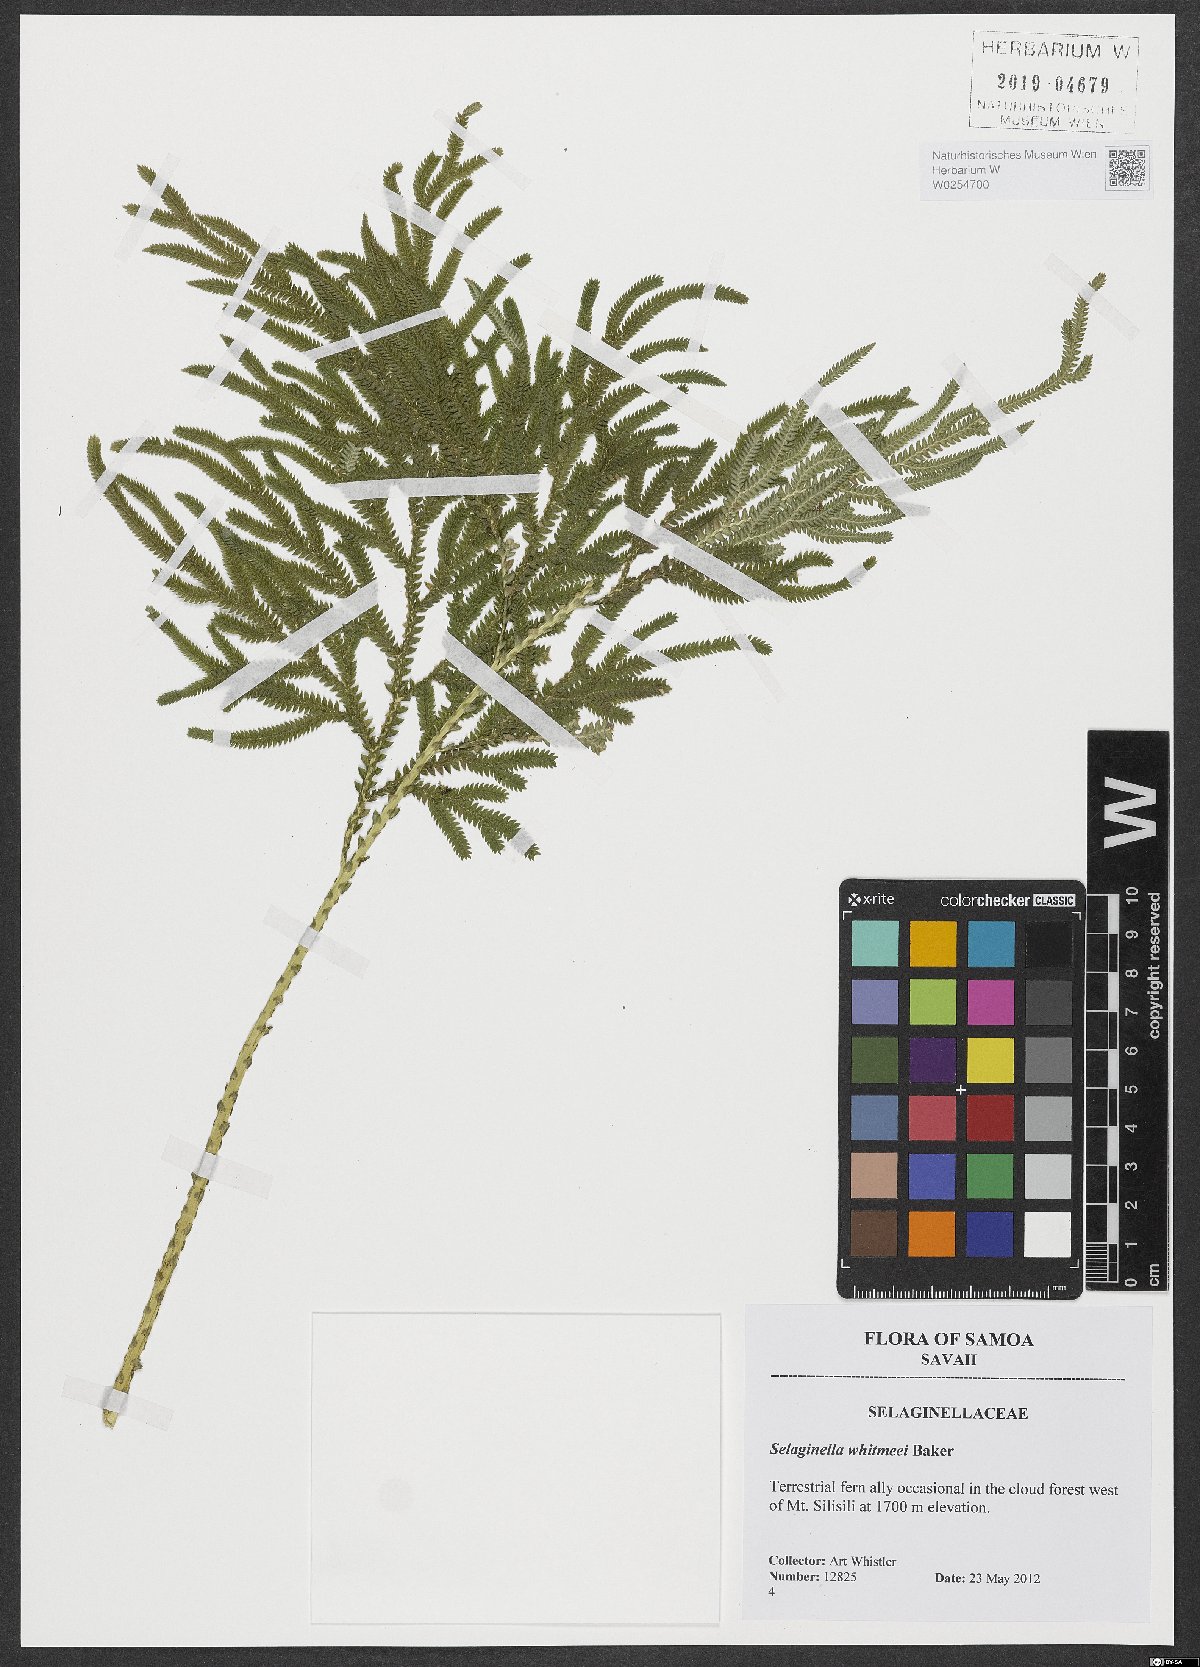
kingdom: Plantae
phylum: Tracheophyta
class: Lycopodiopsida
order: Selaginellales
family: Selaginellaceae
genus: Selaginella
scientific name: Selaginella whitmeei
